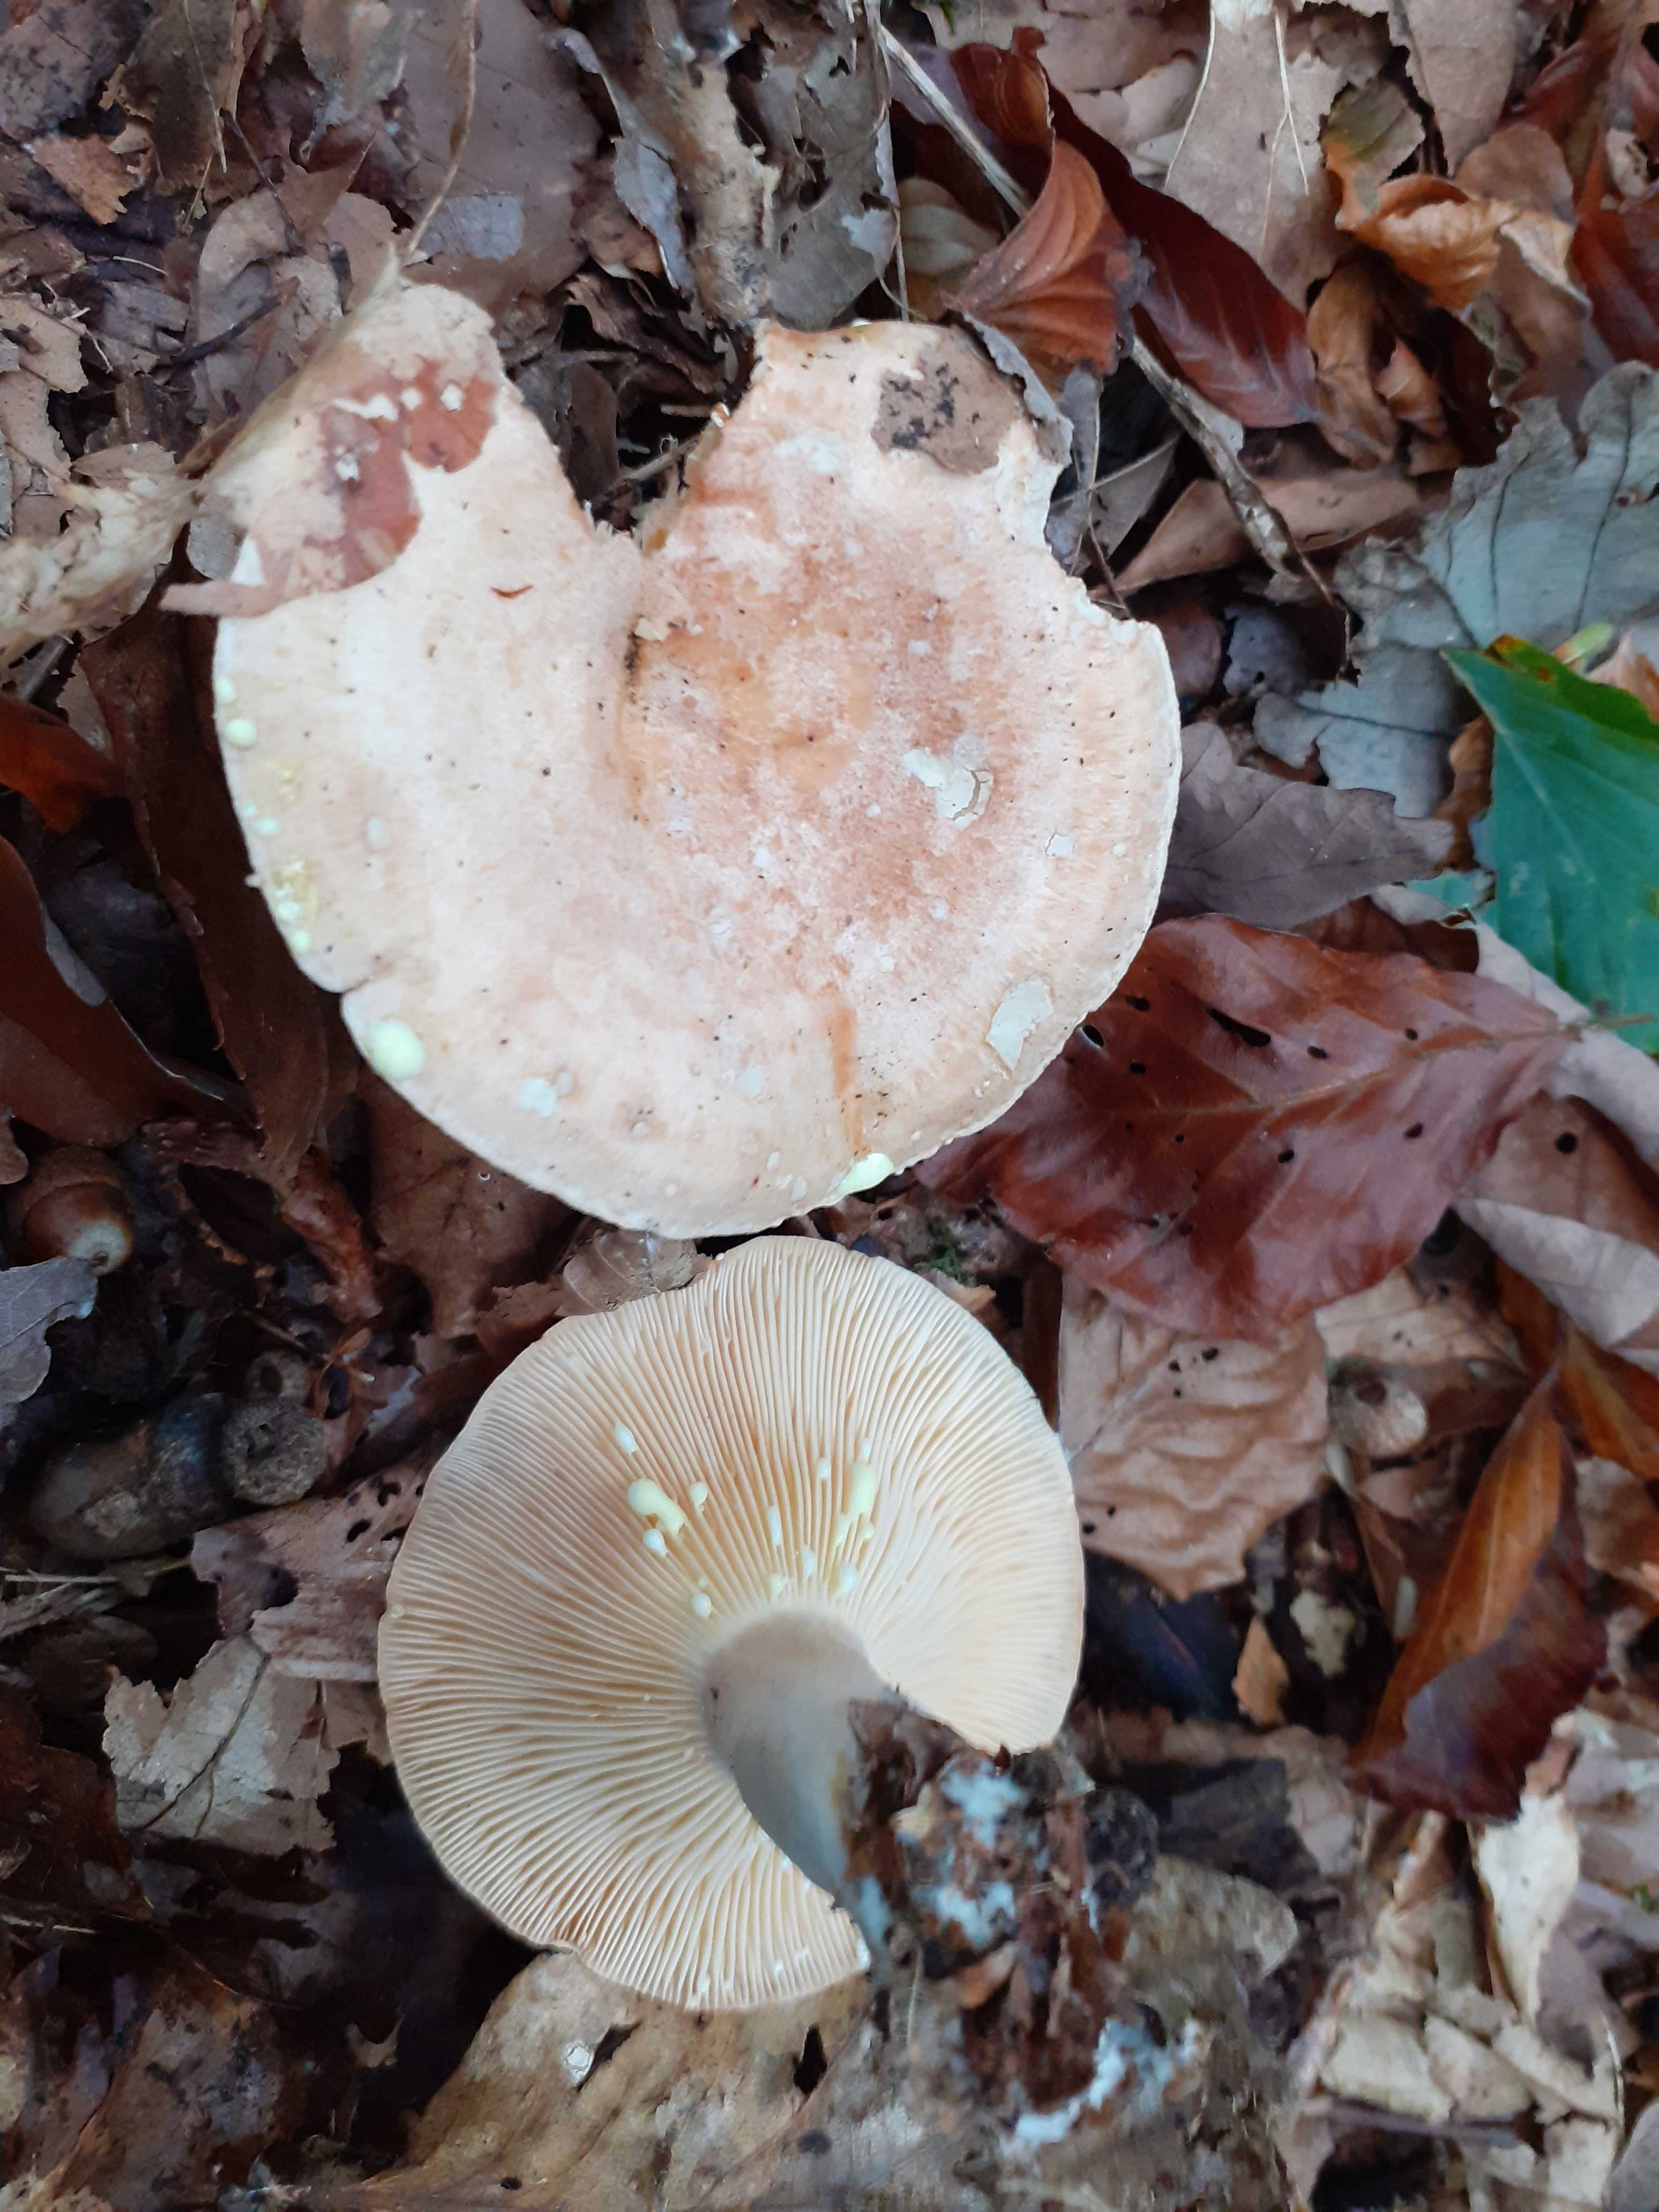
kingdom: Fungi
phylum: Basidiomycota
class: Agaricomycetes
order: Russulales
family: Russulaceae
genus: Lactarius
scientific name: Lactarius chrysorrheus
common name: svovlmælket mælkehat
